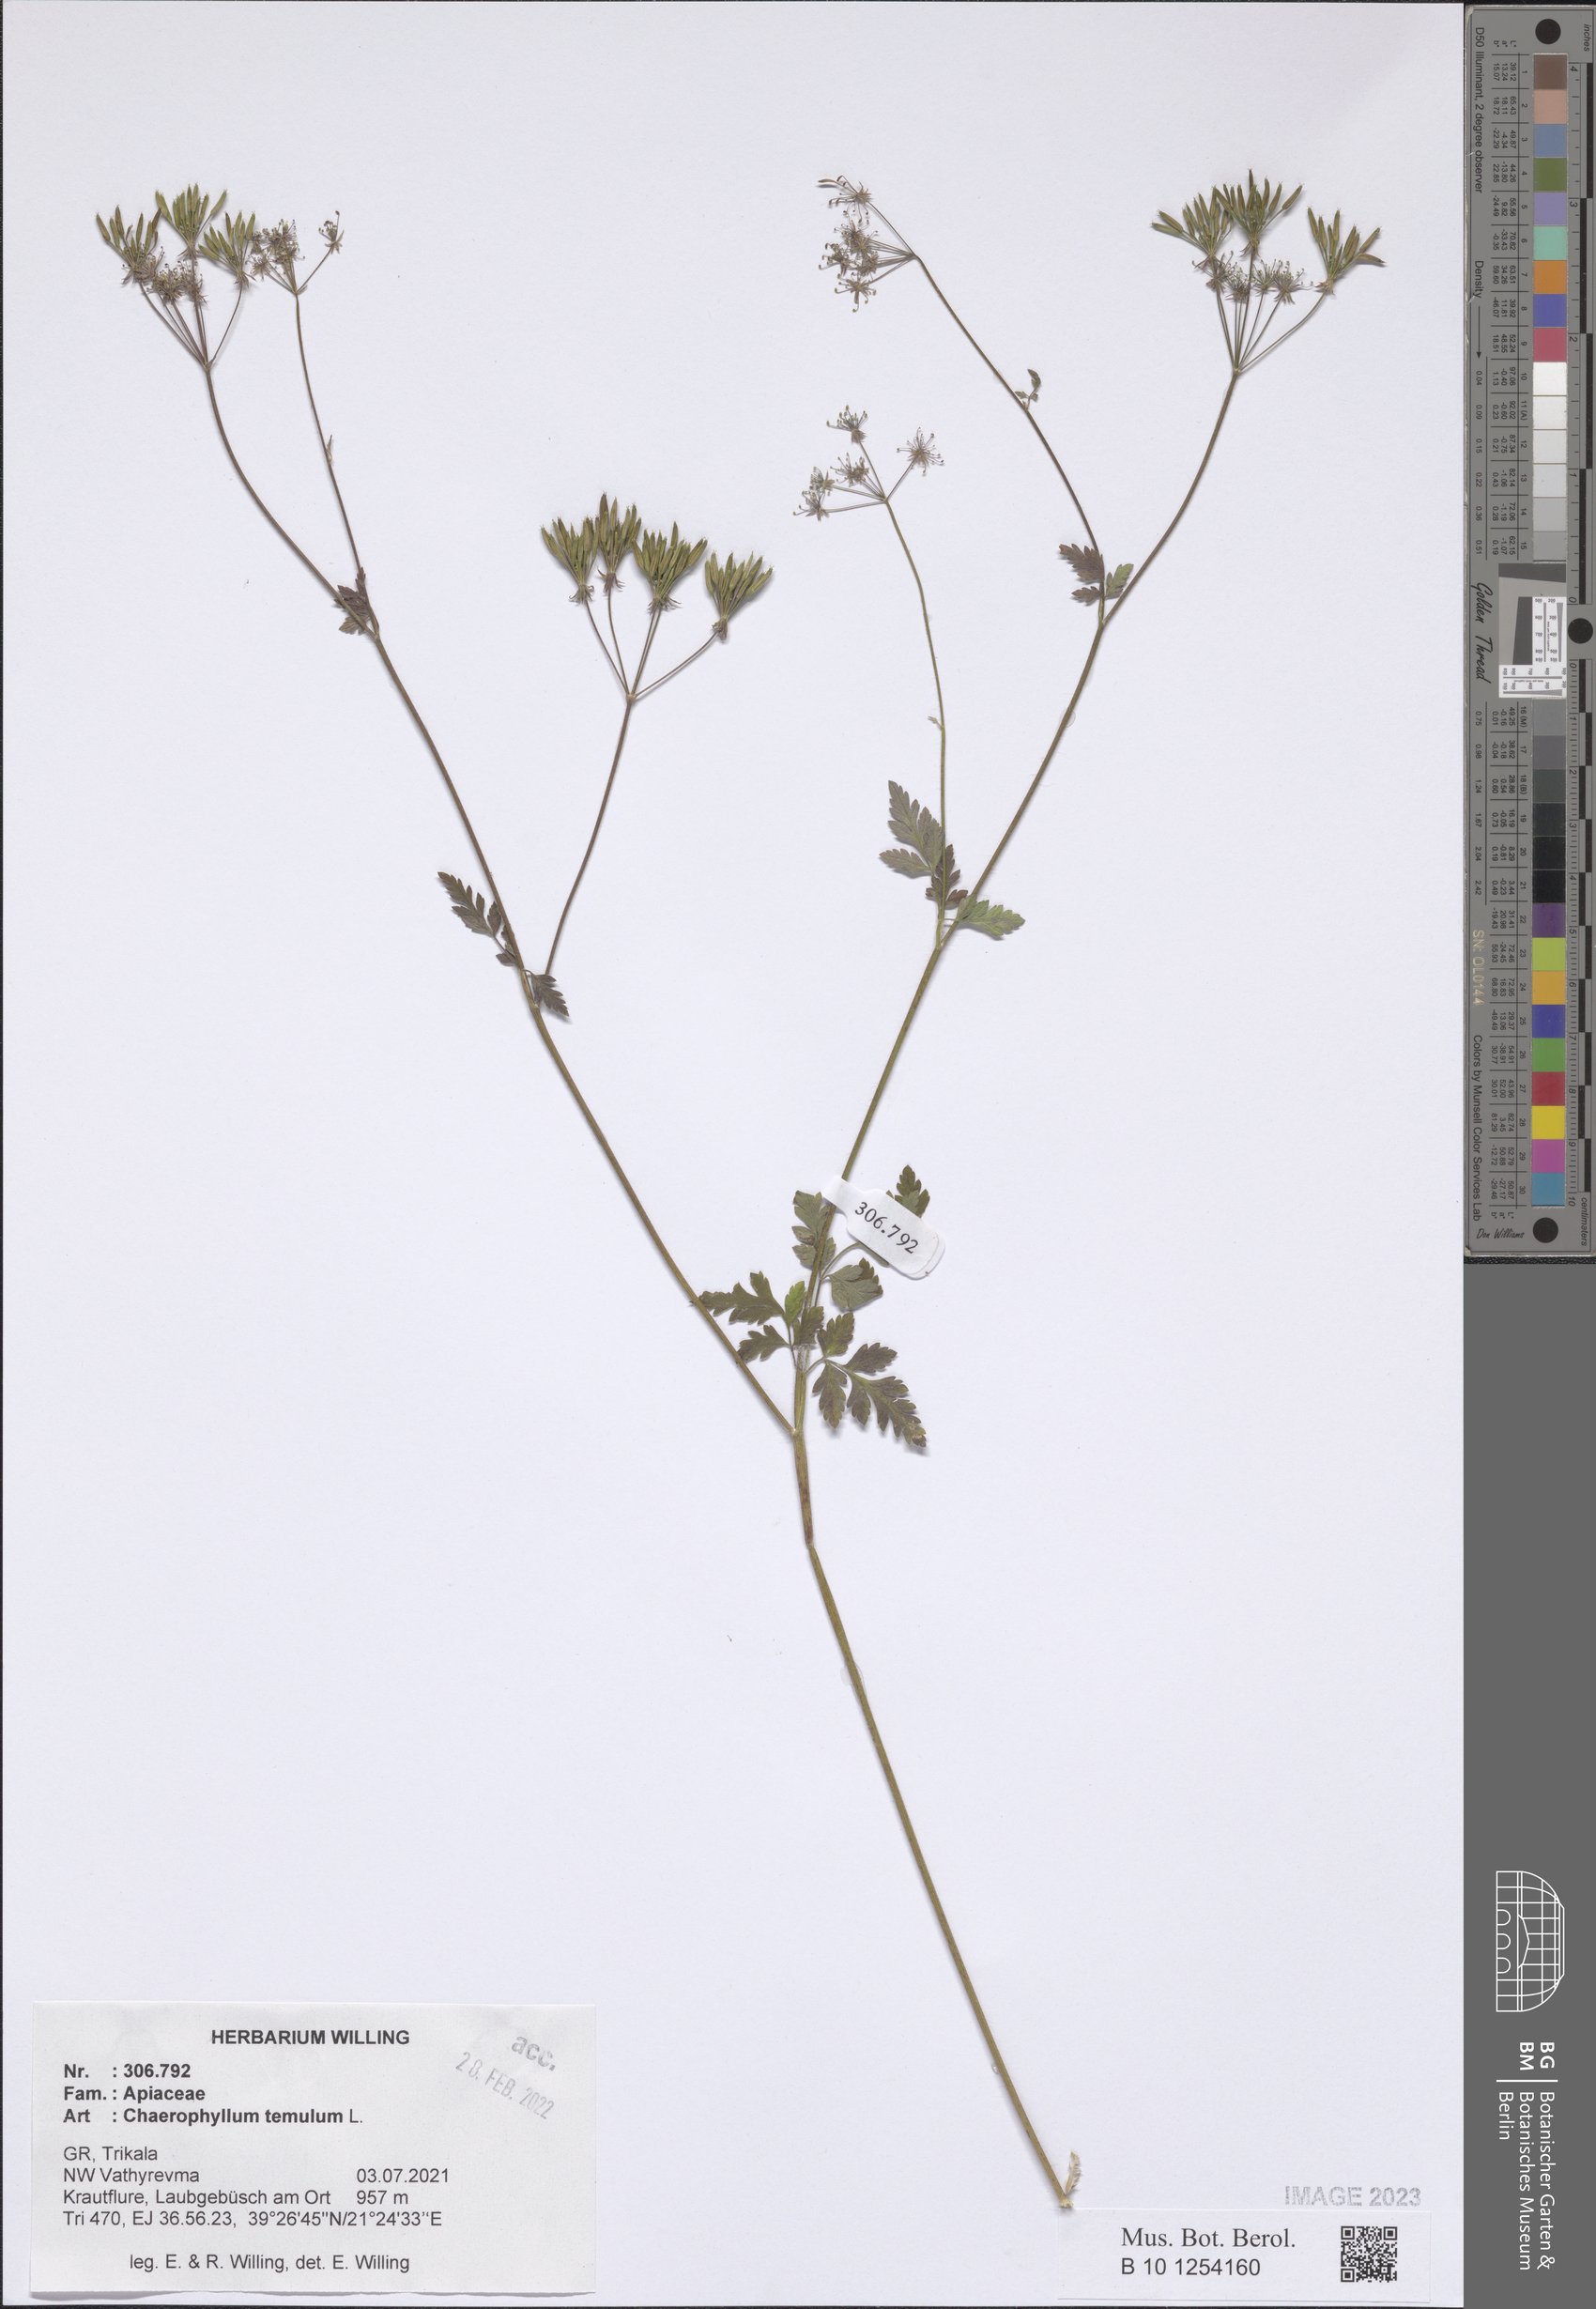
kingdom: Plantae
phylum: Tracheophyta
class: Magnoliopsida
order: Apiales
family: Apiaceae
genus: Chaerophyllum
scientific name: Chaerophyllum temulum
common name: Rough chervil
